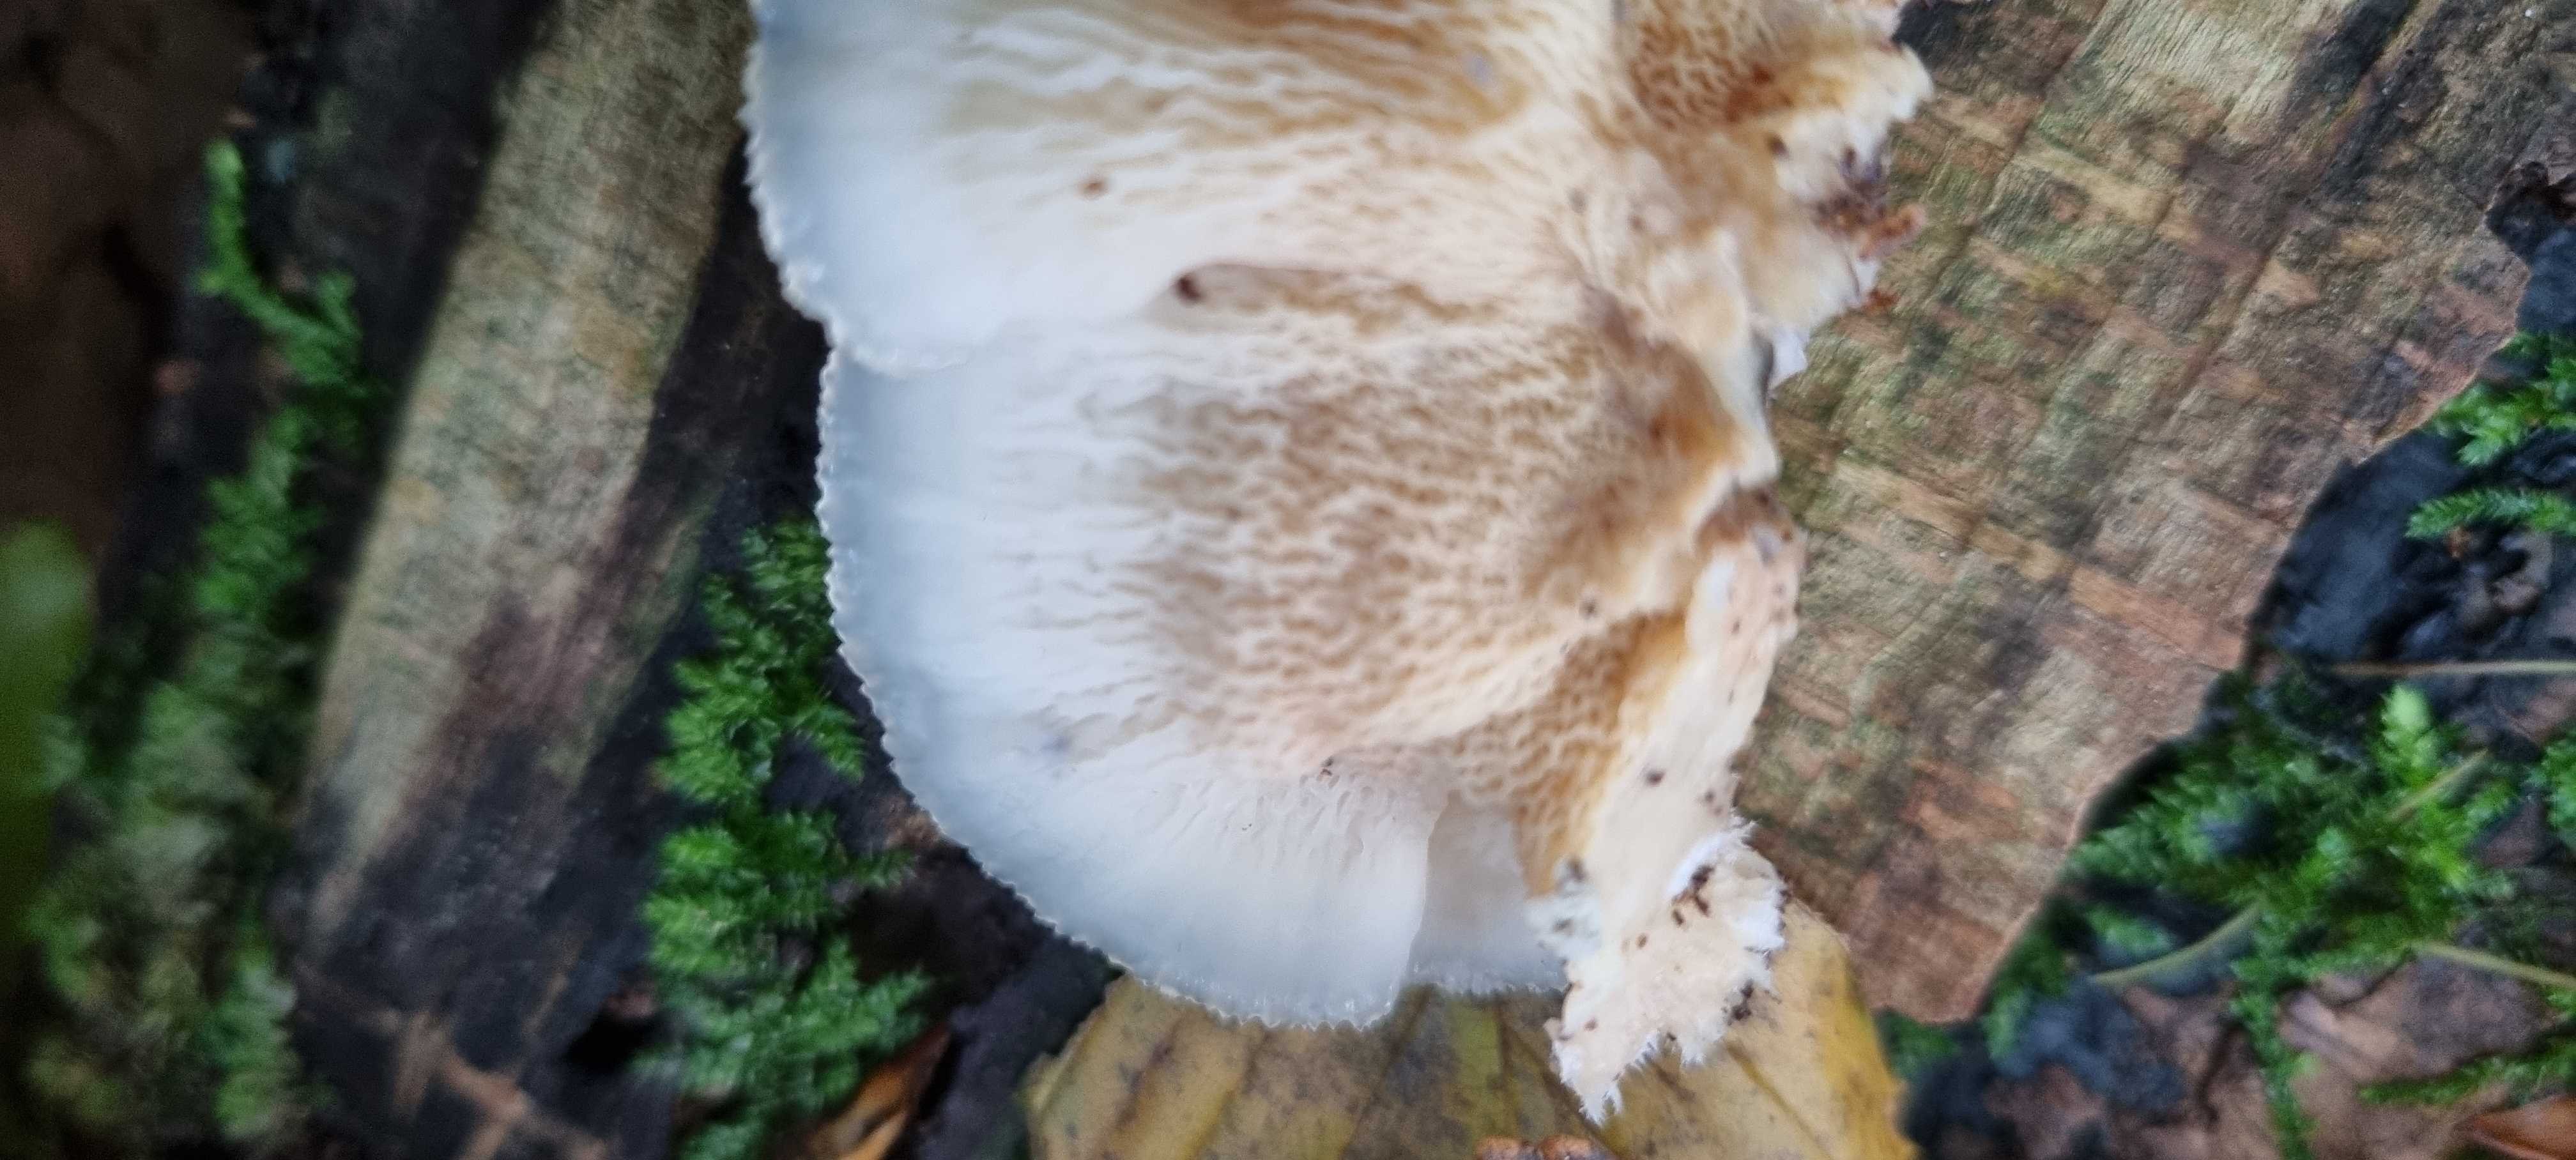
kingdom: Fungi
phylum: Basidiomycota
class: Agaricomycetes
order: Polyporales
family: Meruliaceae
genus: Phlebia
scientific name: Phlebia tremellosa
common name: bævrende åresvamp
